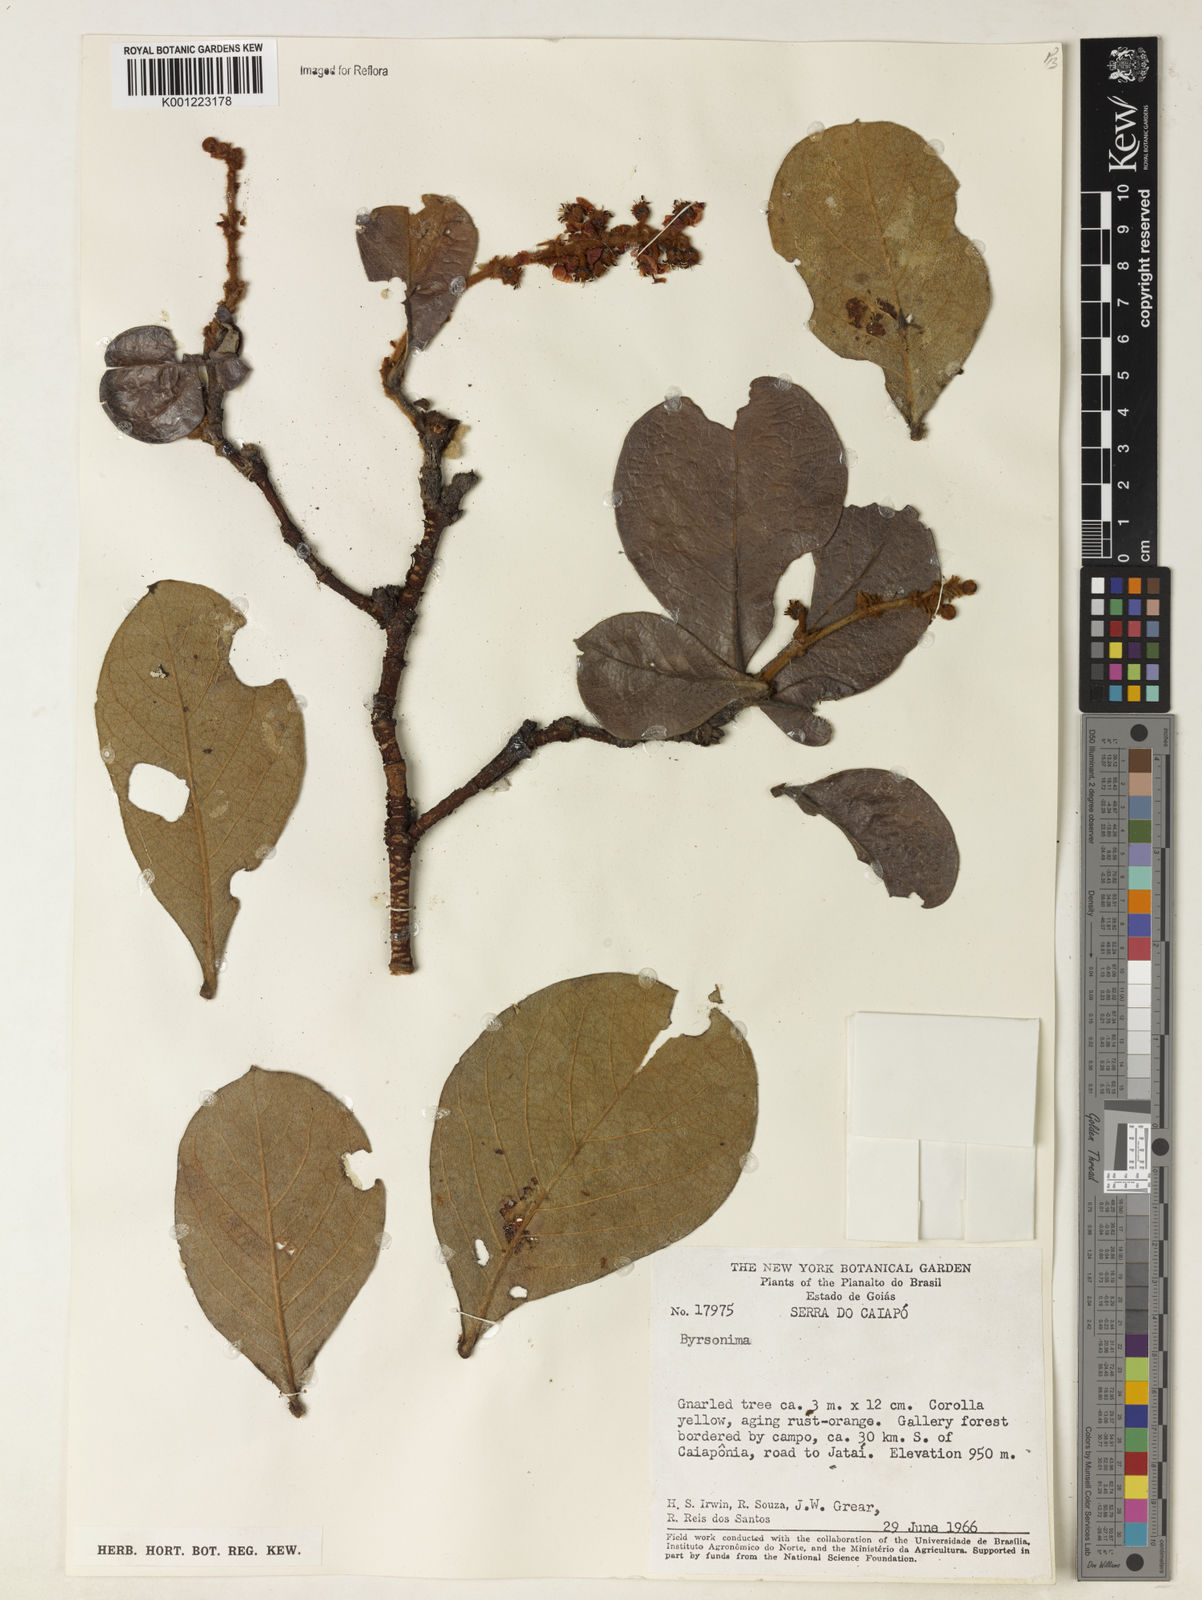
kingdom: Plantae
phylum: Tracheophyta
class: Magnoliopsida
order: Malpighiales
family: Malpighiaceae
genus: Byrsonima
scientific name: Byrsonima
